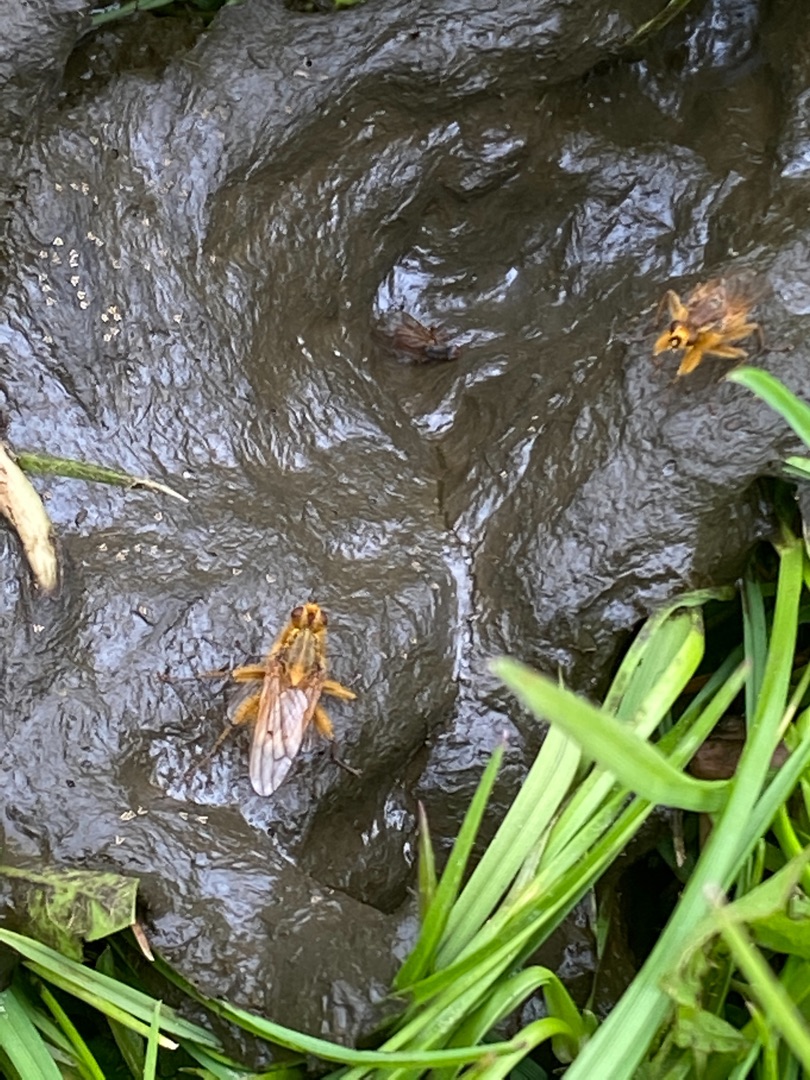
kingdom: Animalia
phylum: Arthropoda
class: Insecta
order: Diptera
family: Scathophagidae
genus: Scathophaga
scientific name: Scathophaga stercoraria
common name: Almindelig gødningsflue
